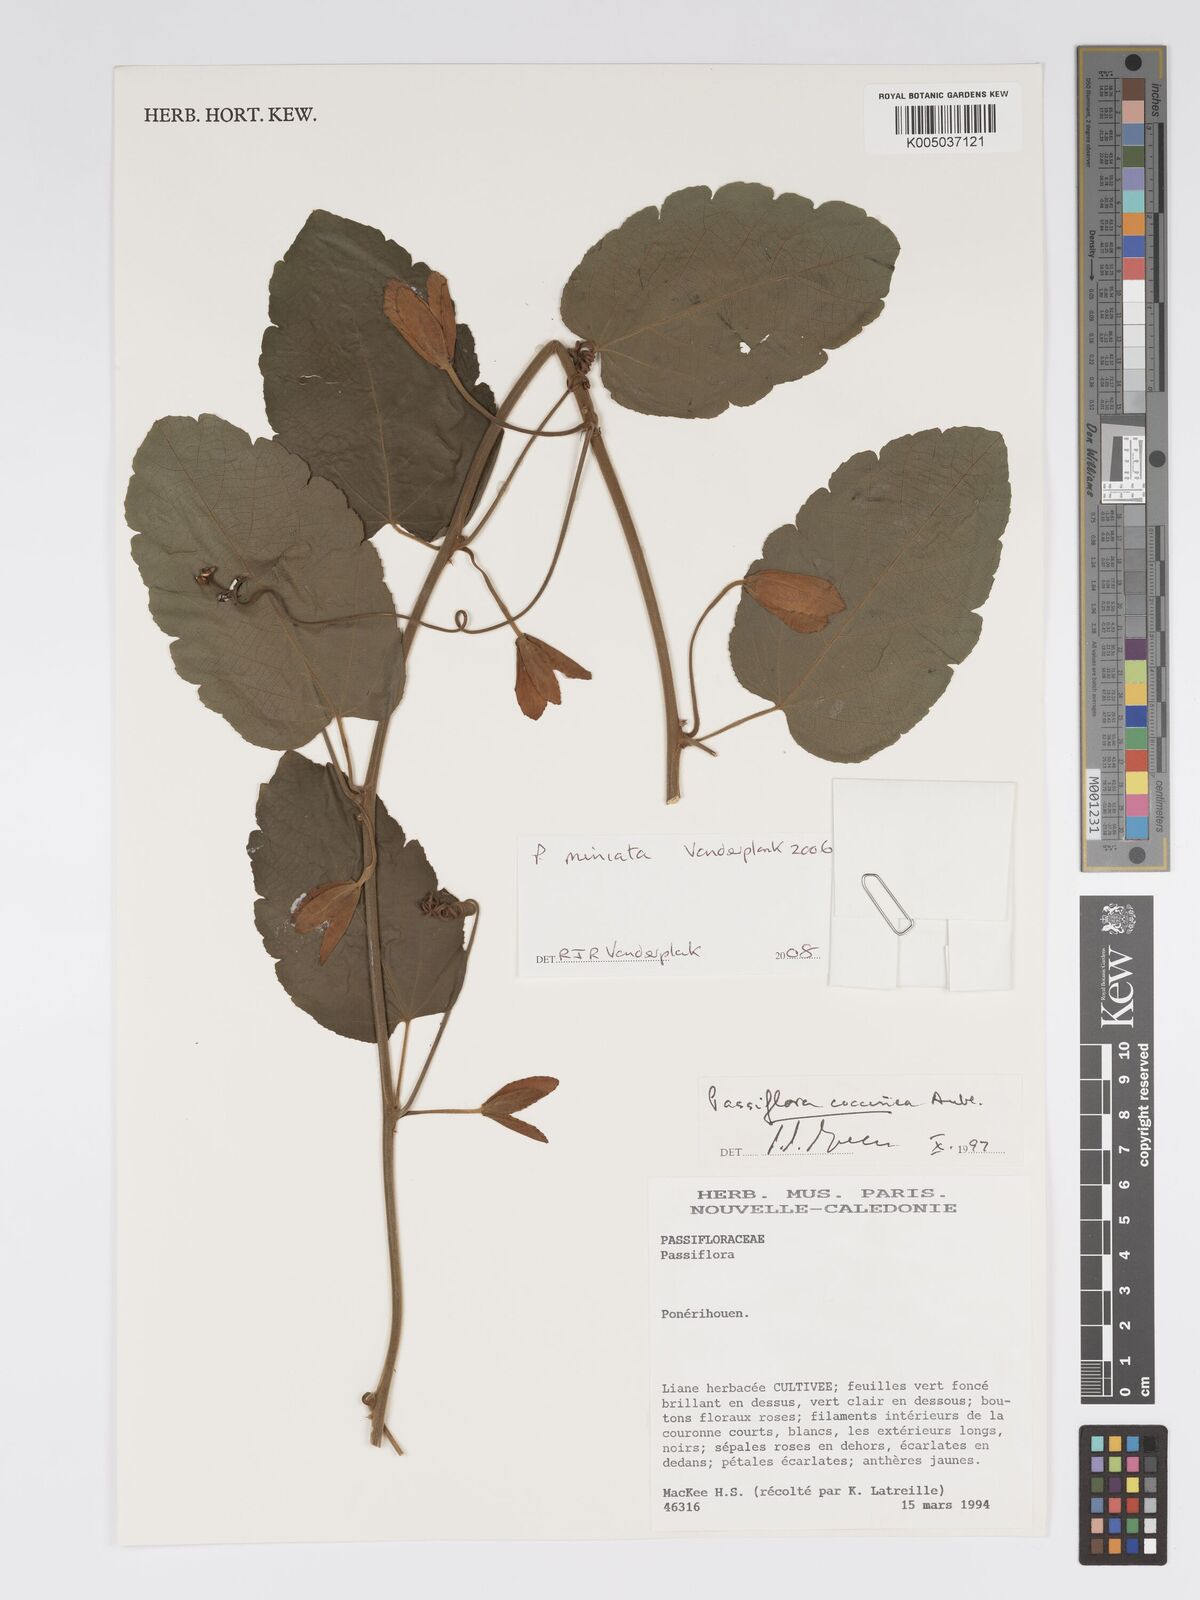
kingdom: Plantae
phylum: Tracheophyta
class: Magnoliopsida
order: Malpighiales
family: Passifloraceae
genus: Passiflora
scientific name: Passiflora
